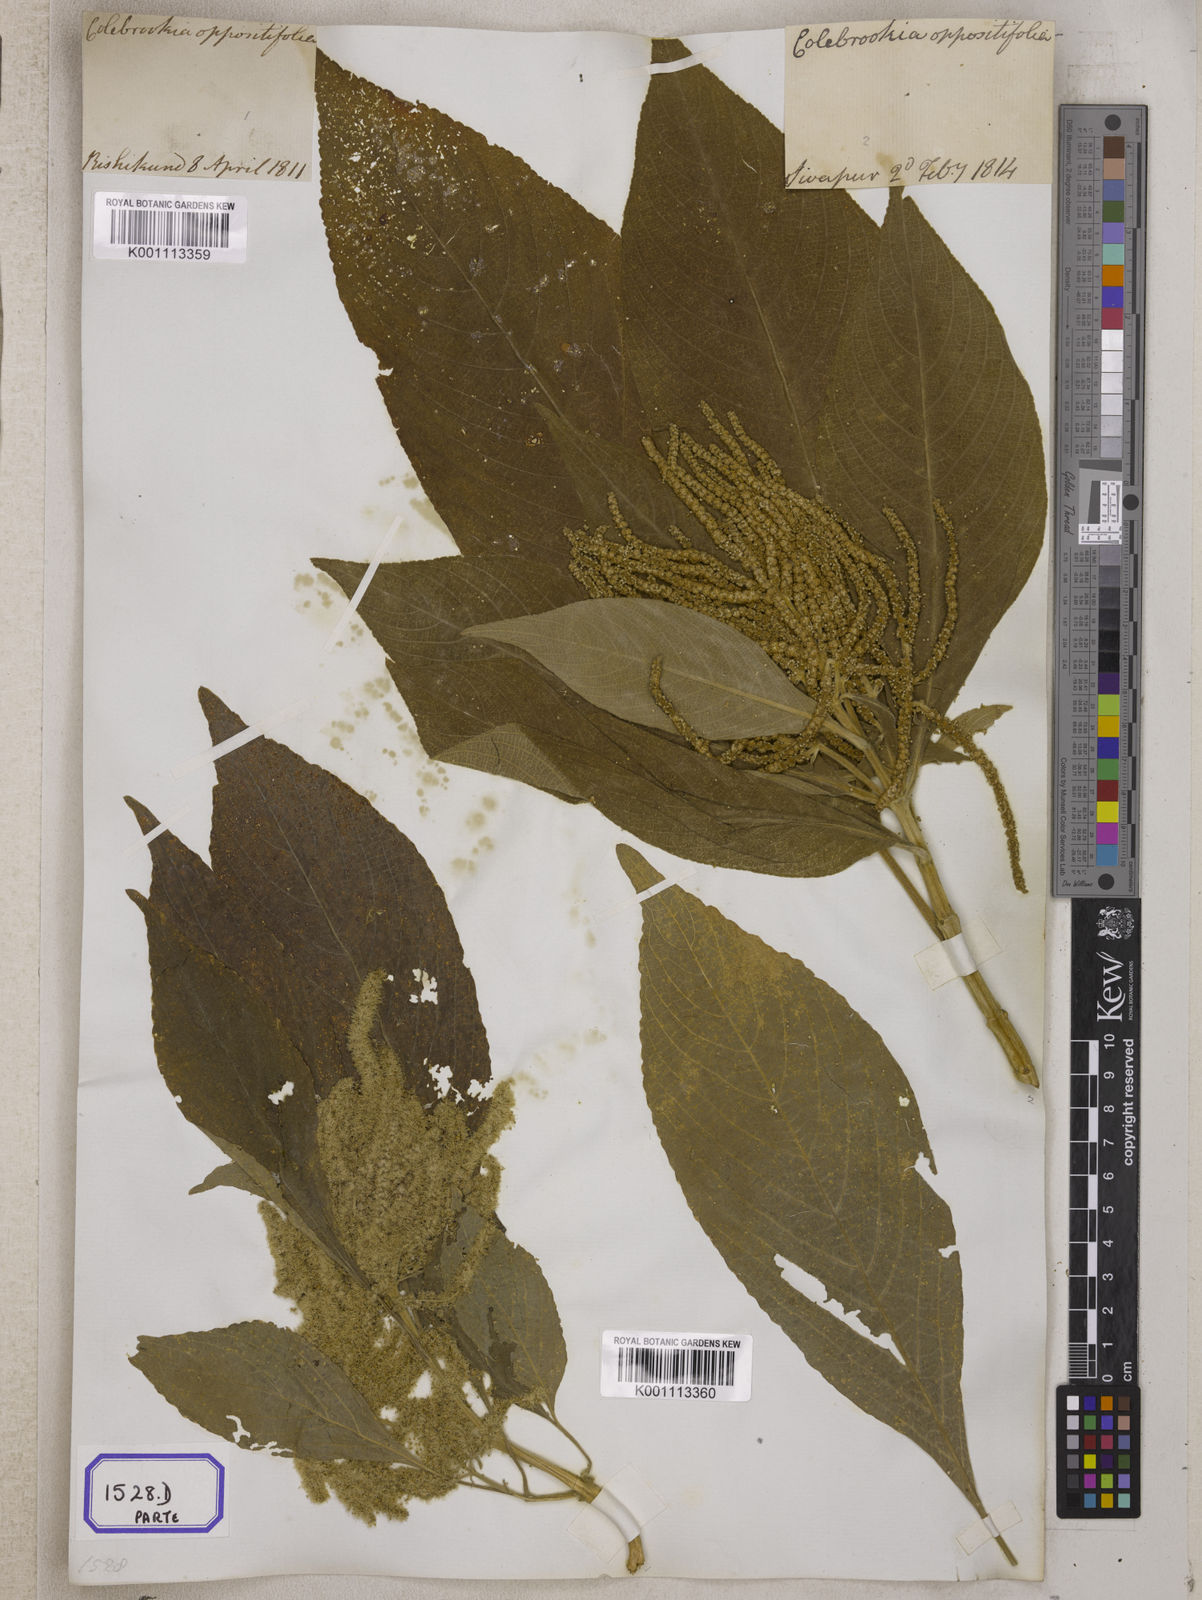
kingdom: Plantae
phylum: Tracheophyta
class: Magnoliopsida
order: Lamiales
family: Lamiaceae
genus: Colebrookea
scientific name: Colebrookea
